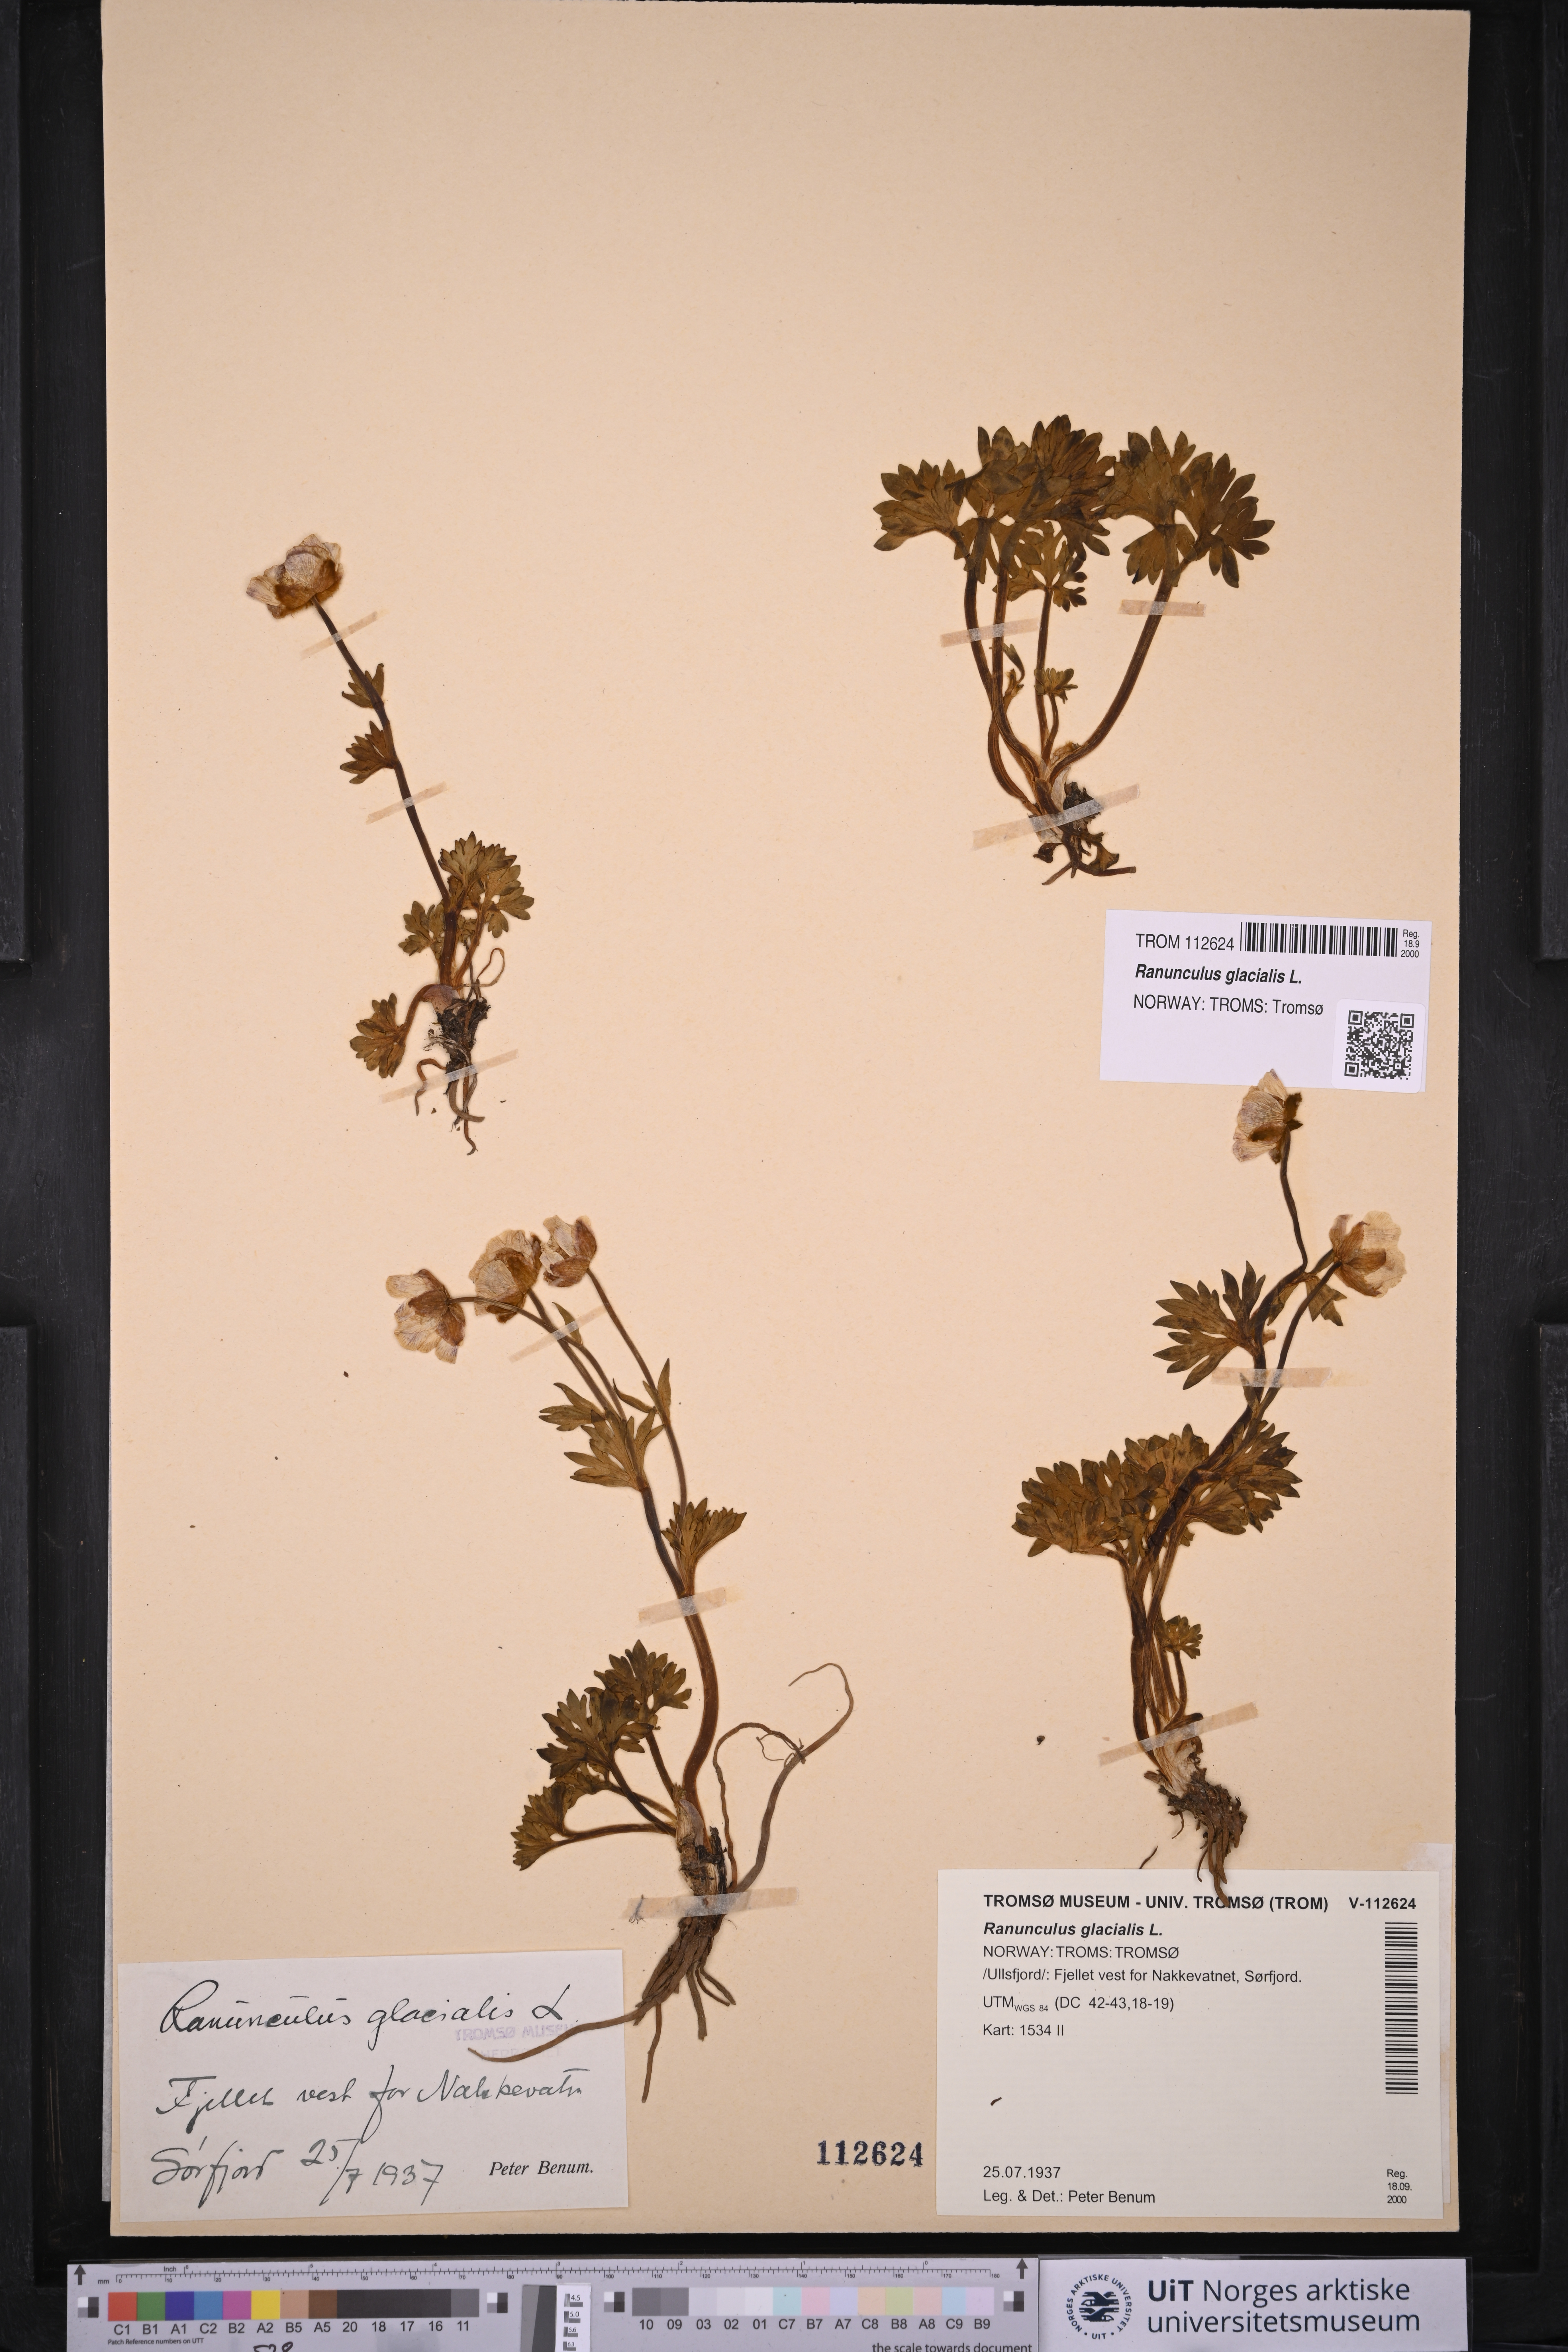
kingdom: Plantae
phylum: Tracheophyta
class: Magnoliopsida
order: Ranunculales
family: Ranunculaceae
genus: Ranunculus
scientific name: Ranunculus glacialis
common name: Glacier buttercup
